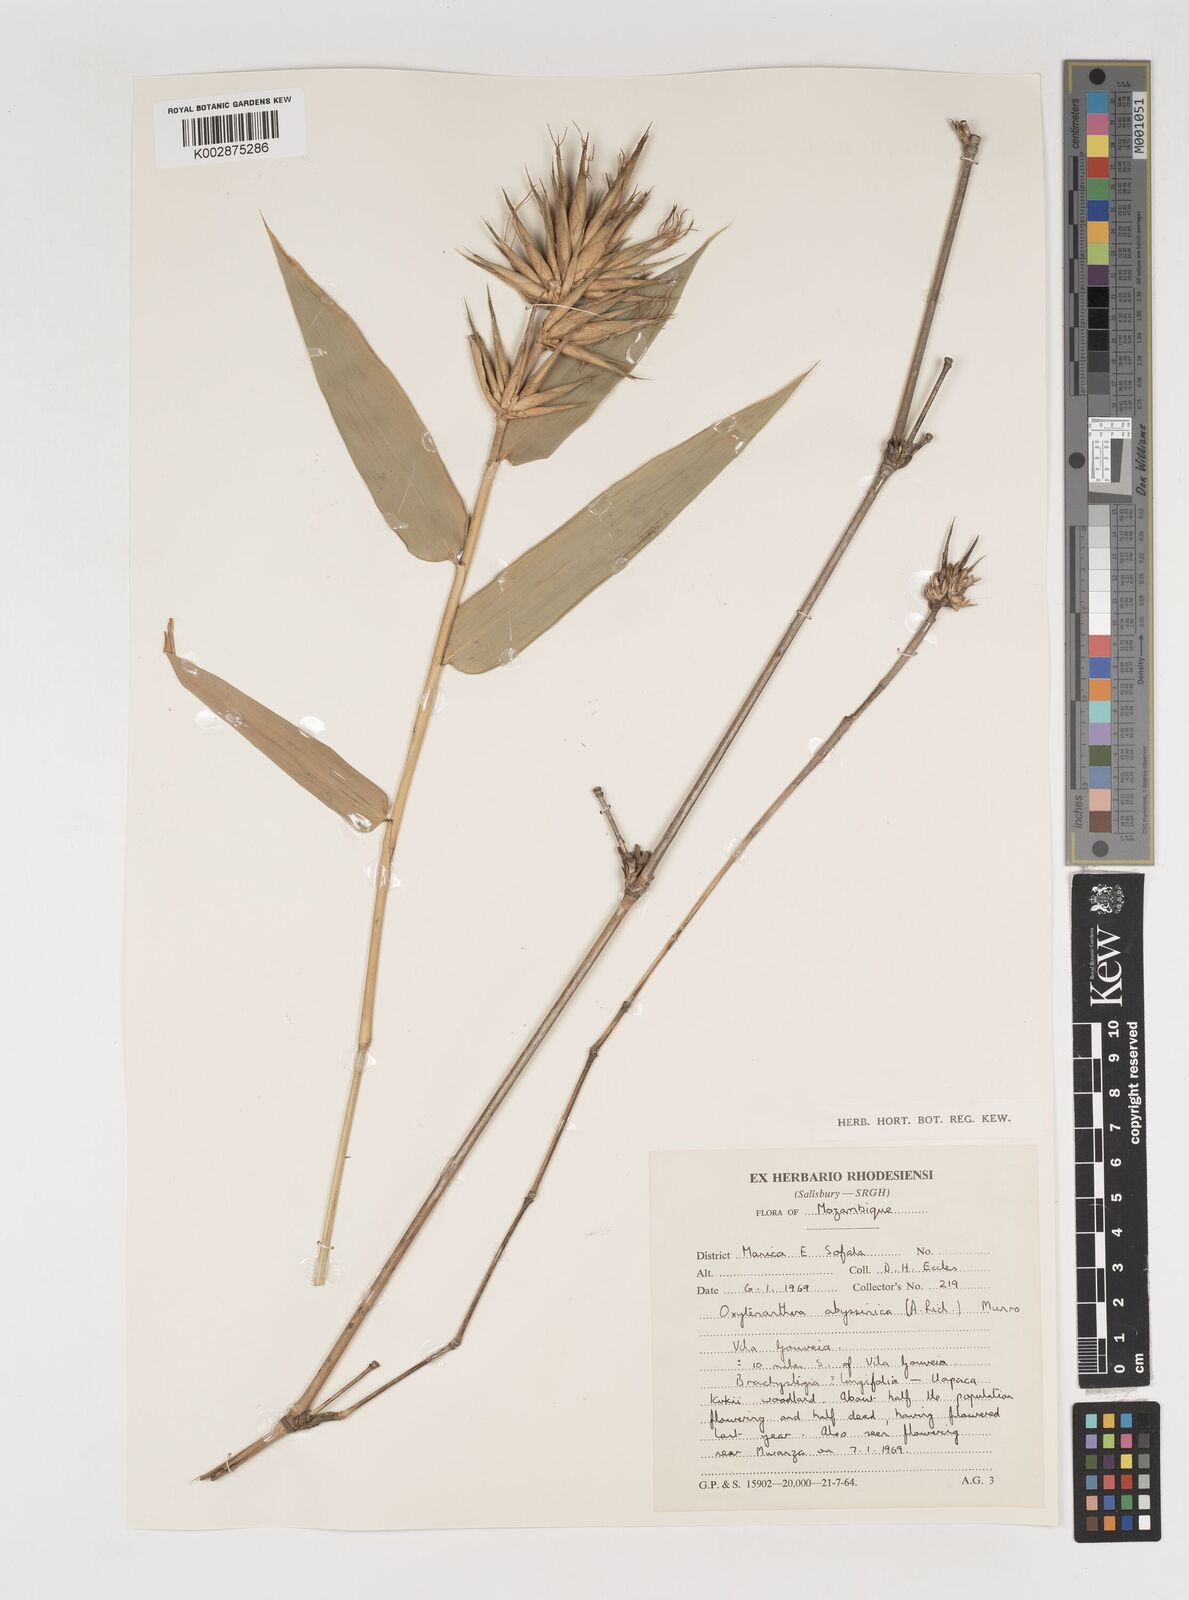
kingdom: Plantae
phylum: Tracheophyta
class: Liliopsida
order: Poales
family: Poaceae
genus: Oxytenanthera
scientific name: Oxytenanthera abyssinica
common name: Wine bamboo
